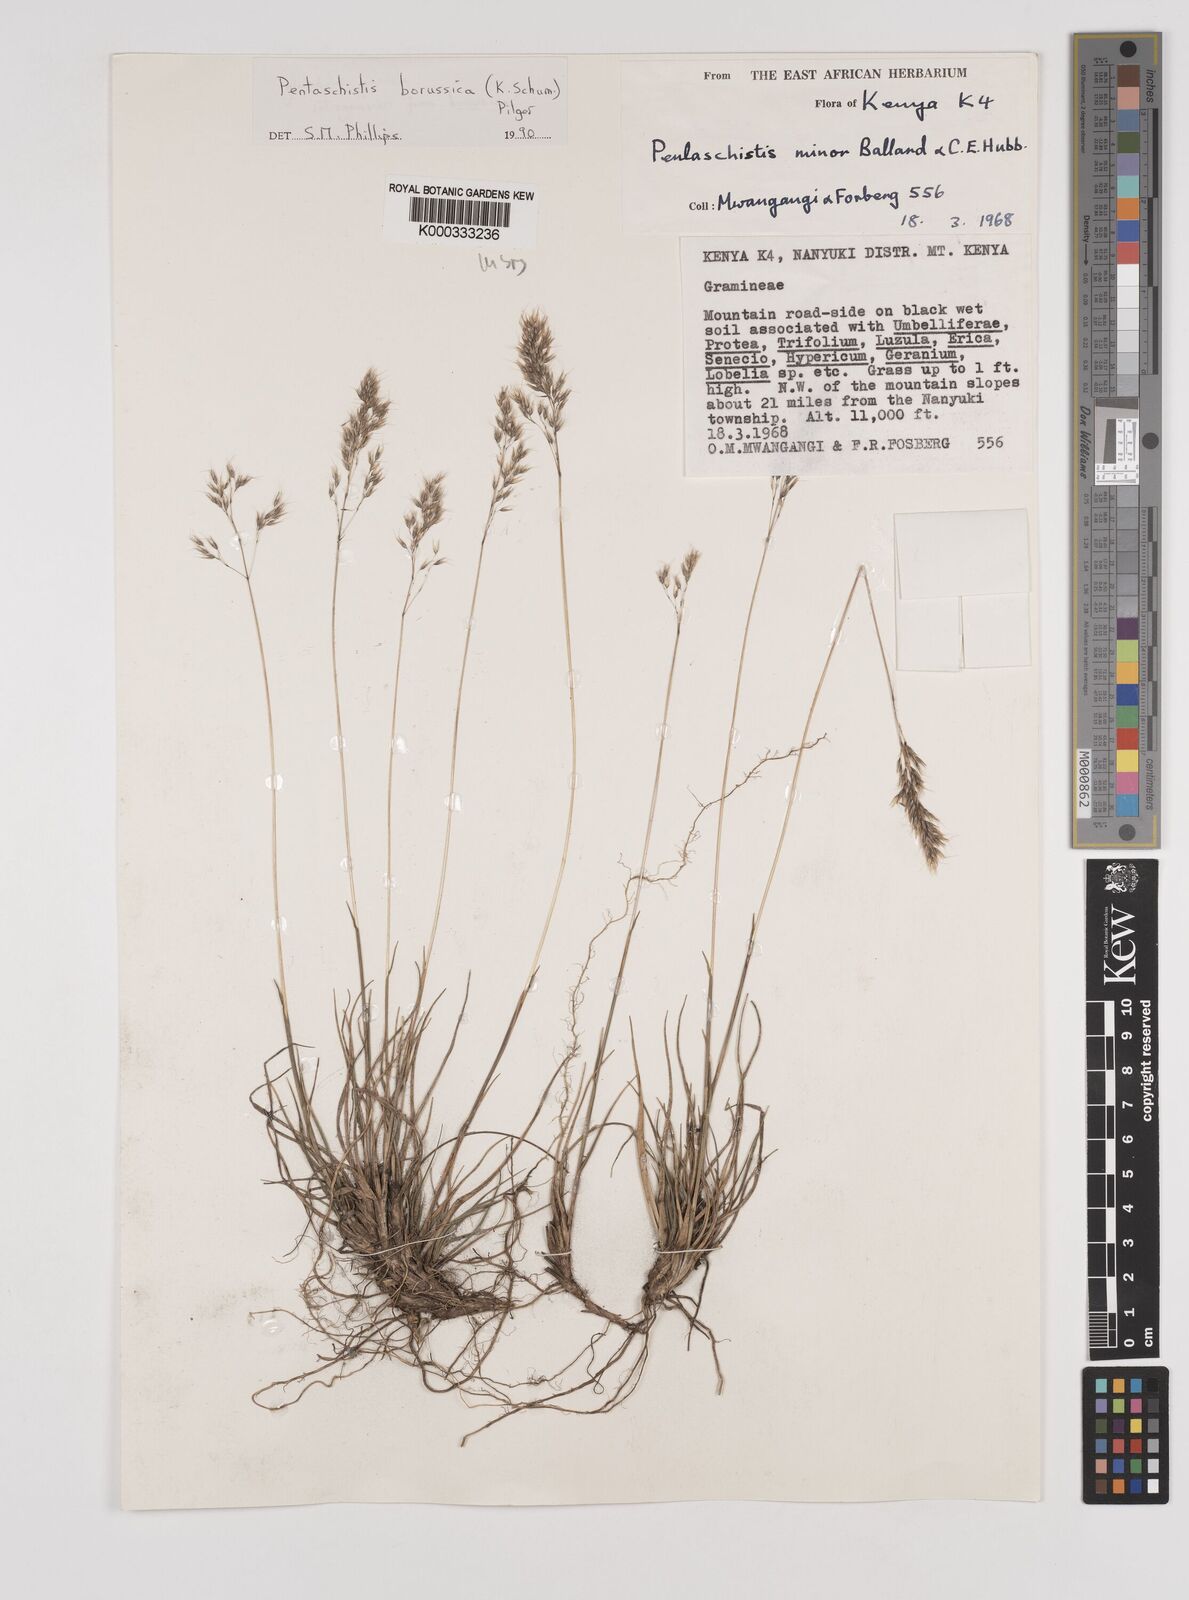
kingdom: Plantae
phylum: Tracheophyta
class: Liliopsida
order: Poales
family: Poaceae
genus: Pentameris
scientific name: Pentameris borussica
